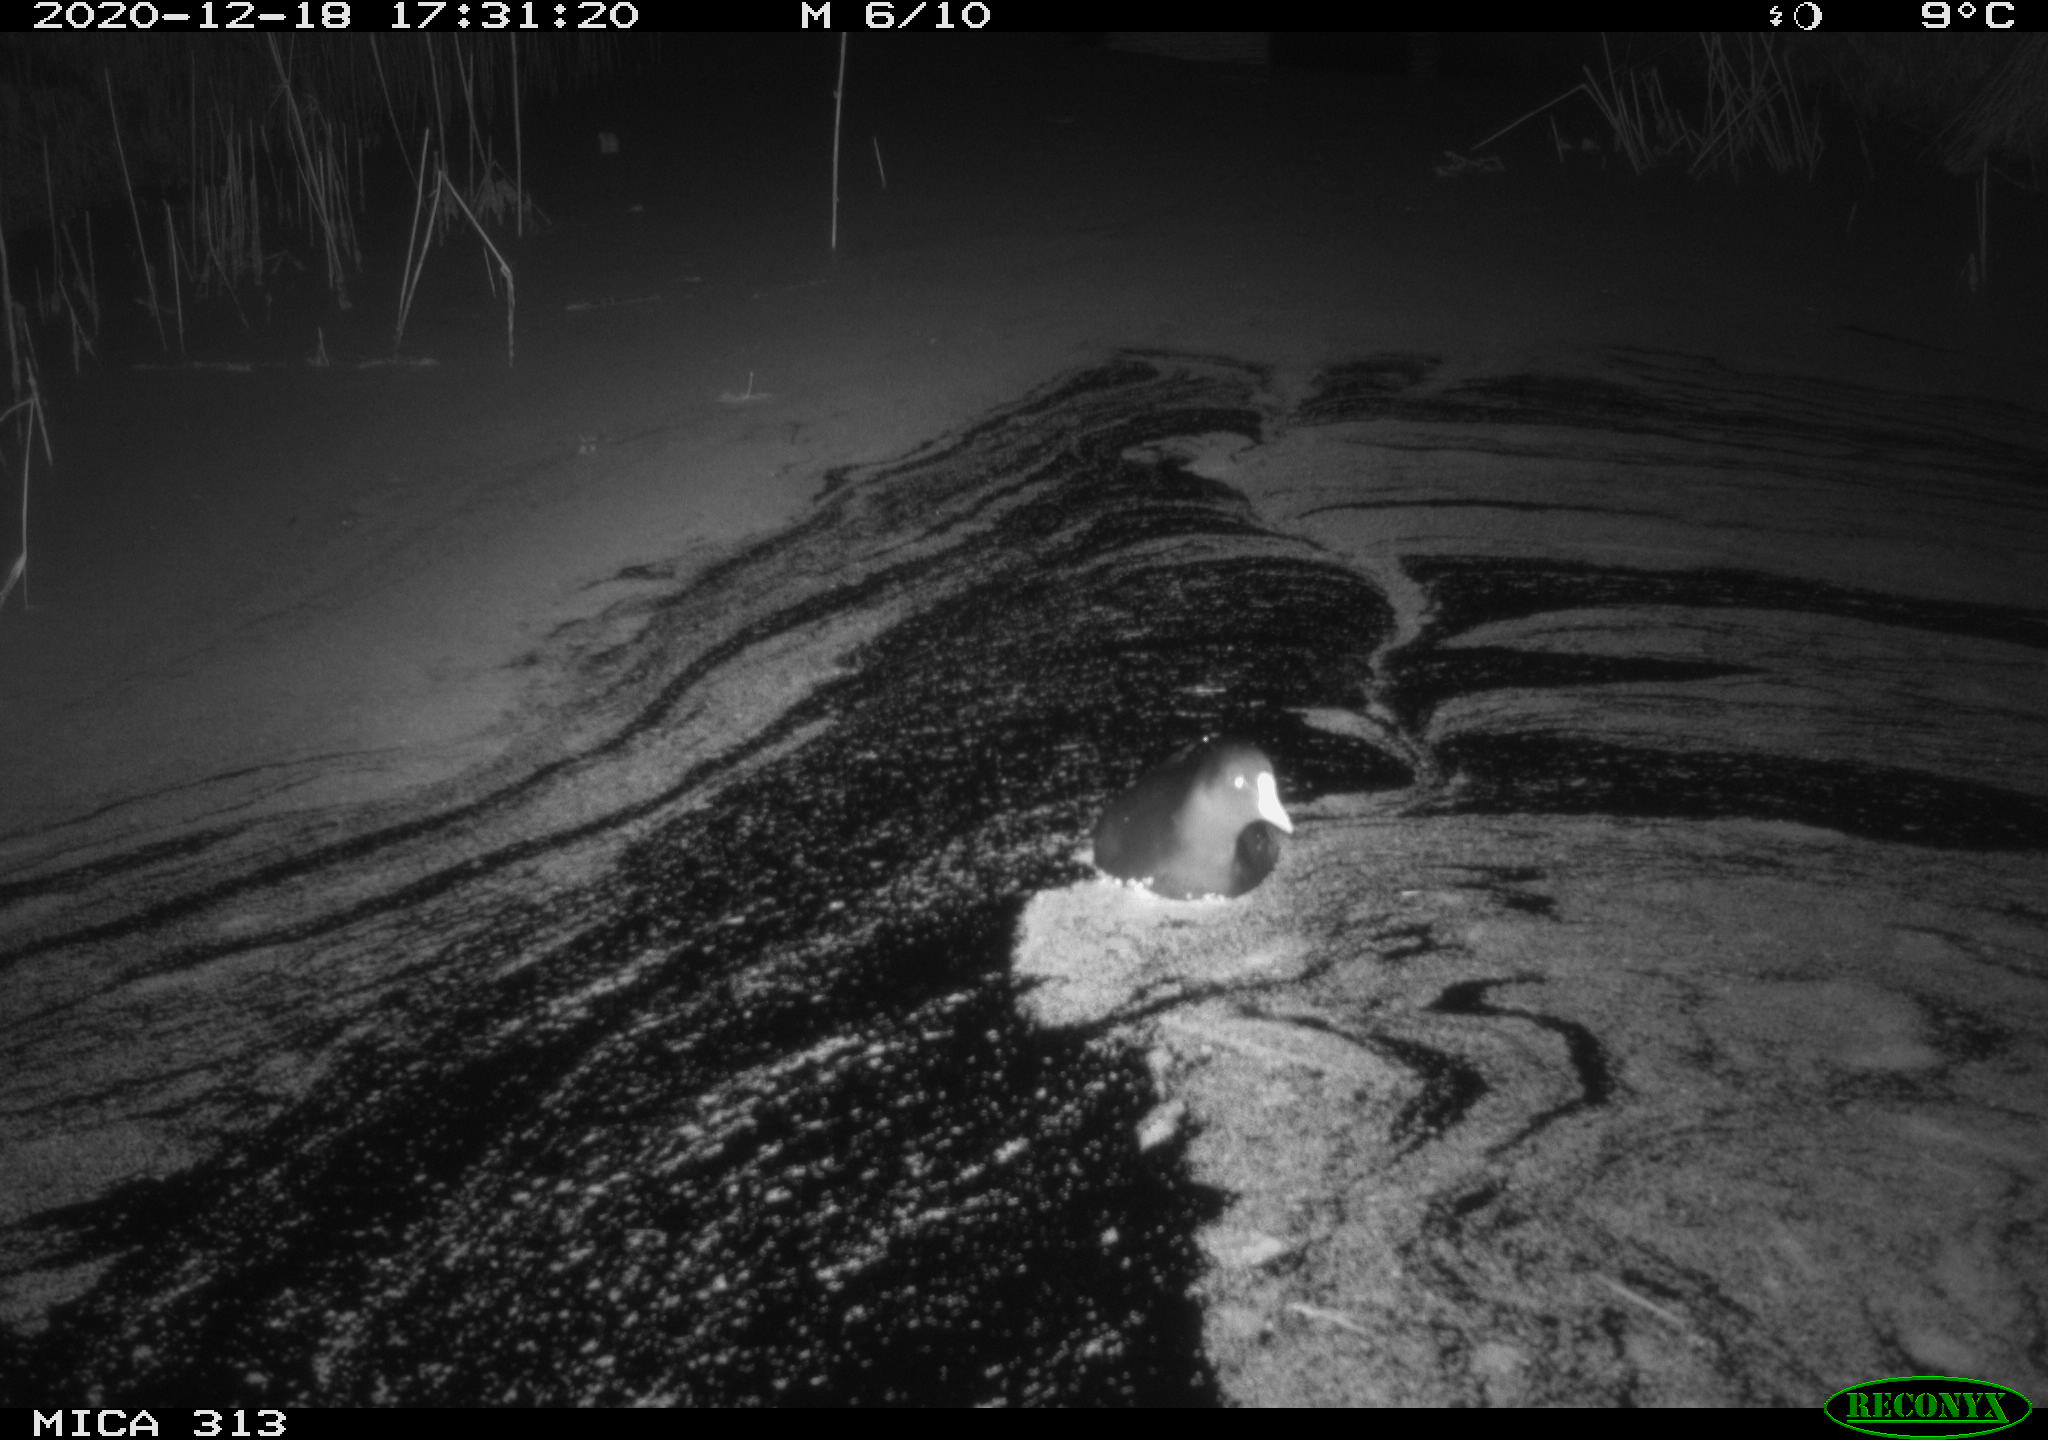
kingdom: Animalia
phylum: Chordata
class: Aves
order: Gruiformes
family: Rallidae
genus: Gallinula
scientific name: Gallinula chloropus
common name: Common moorhen
